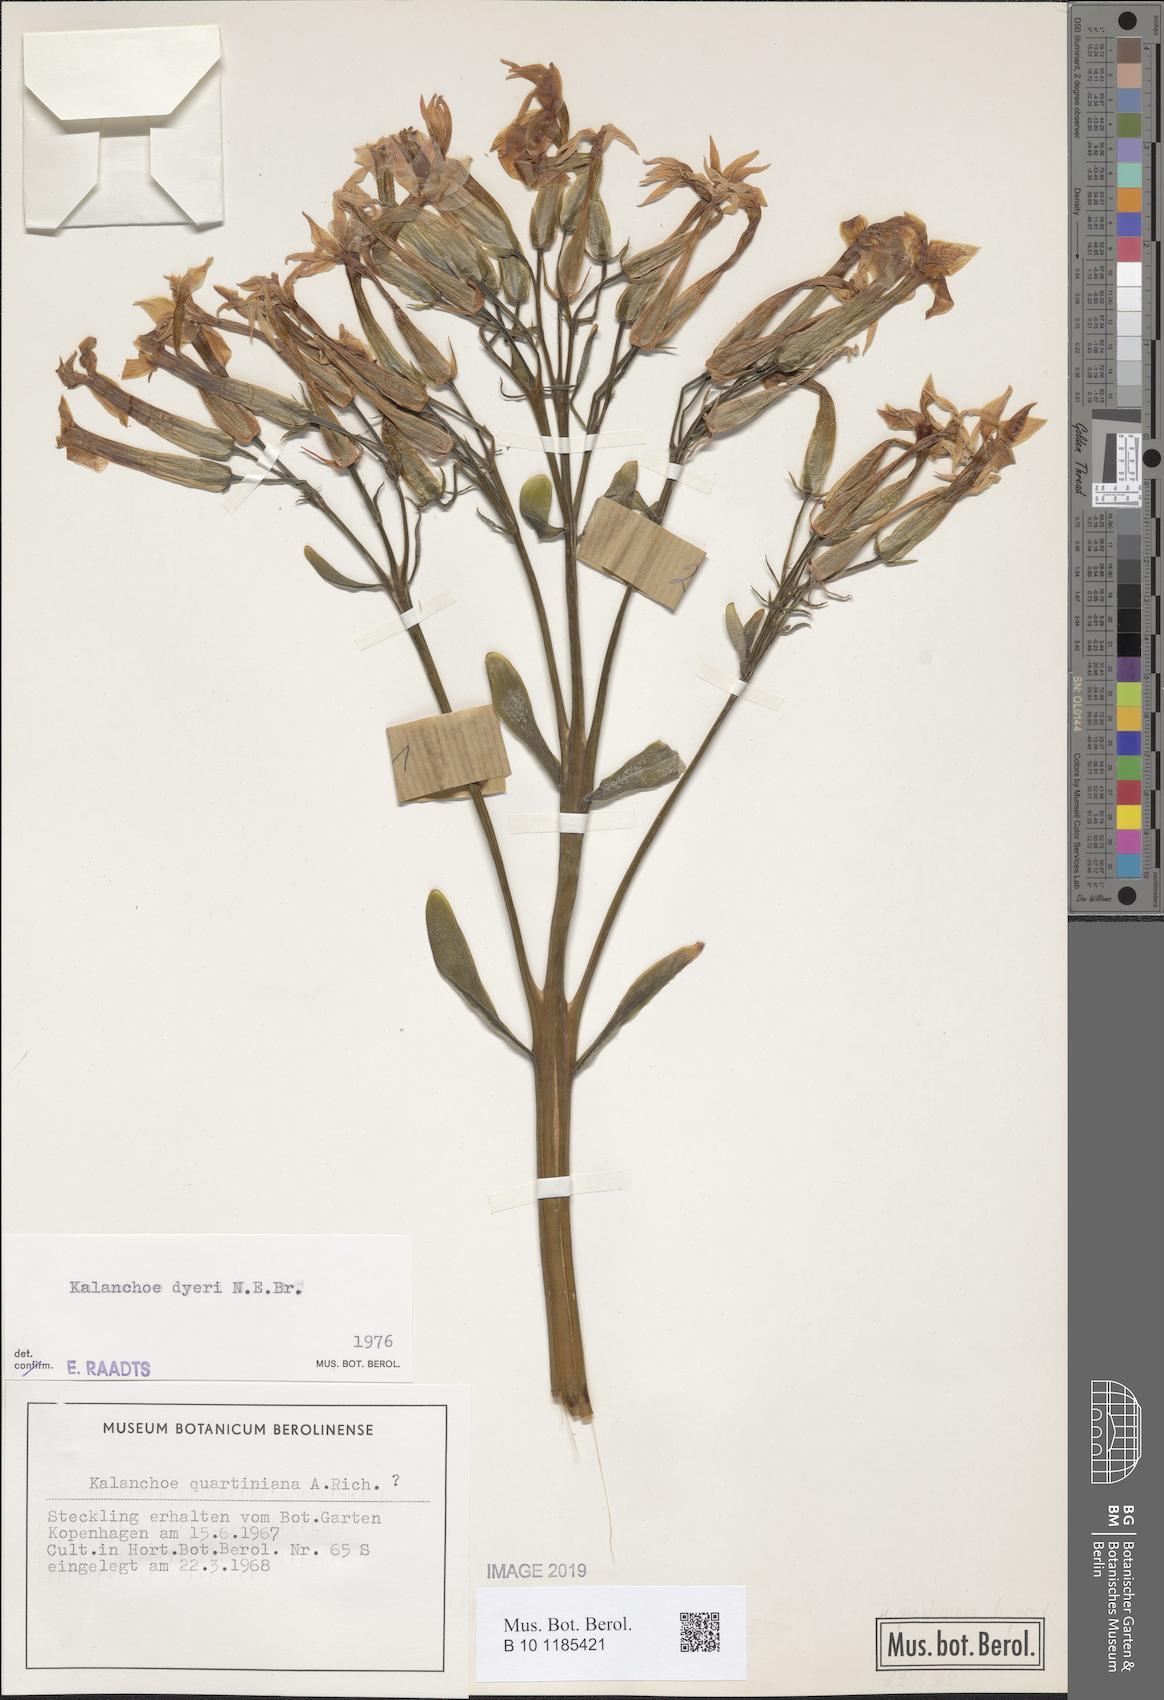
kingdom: Plantae
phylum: Tracheophyta
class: Magnoliopsida
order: Saxifragales
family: Crassulaceae
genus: Kalanchoe
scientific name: Kalanchoe dyeri
